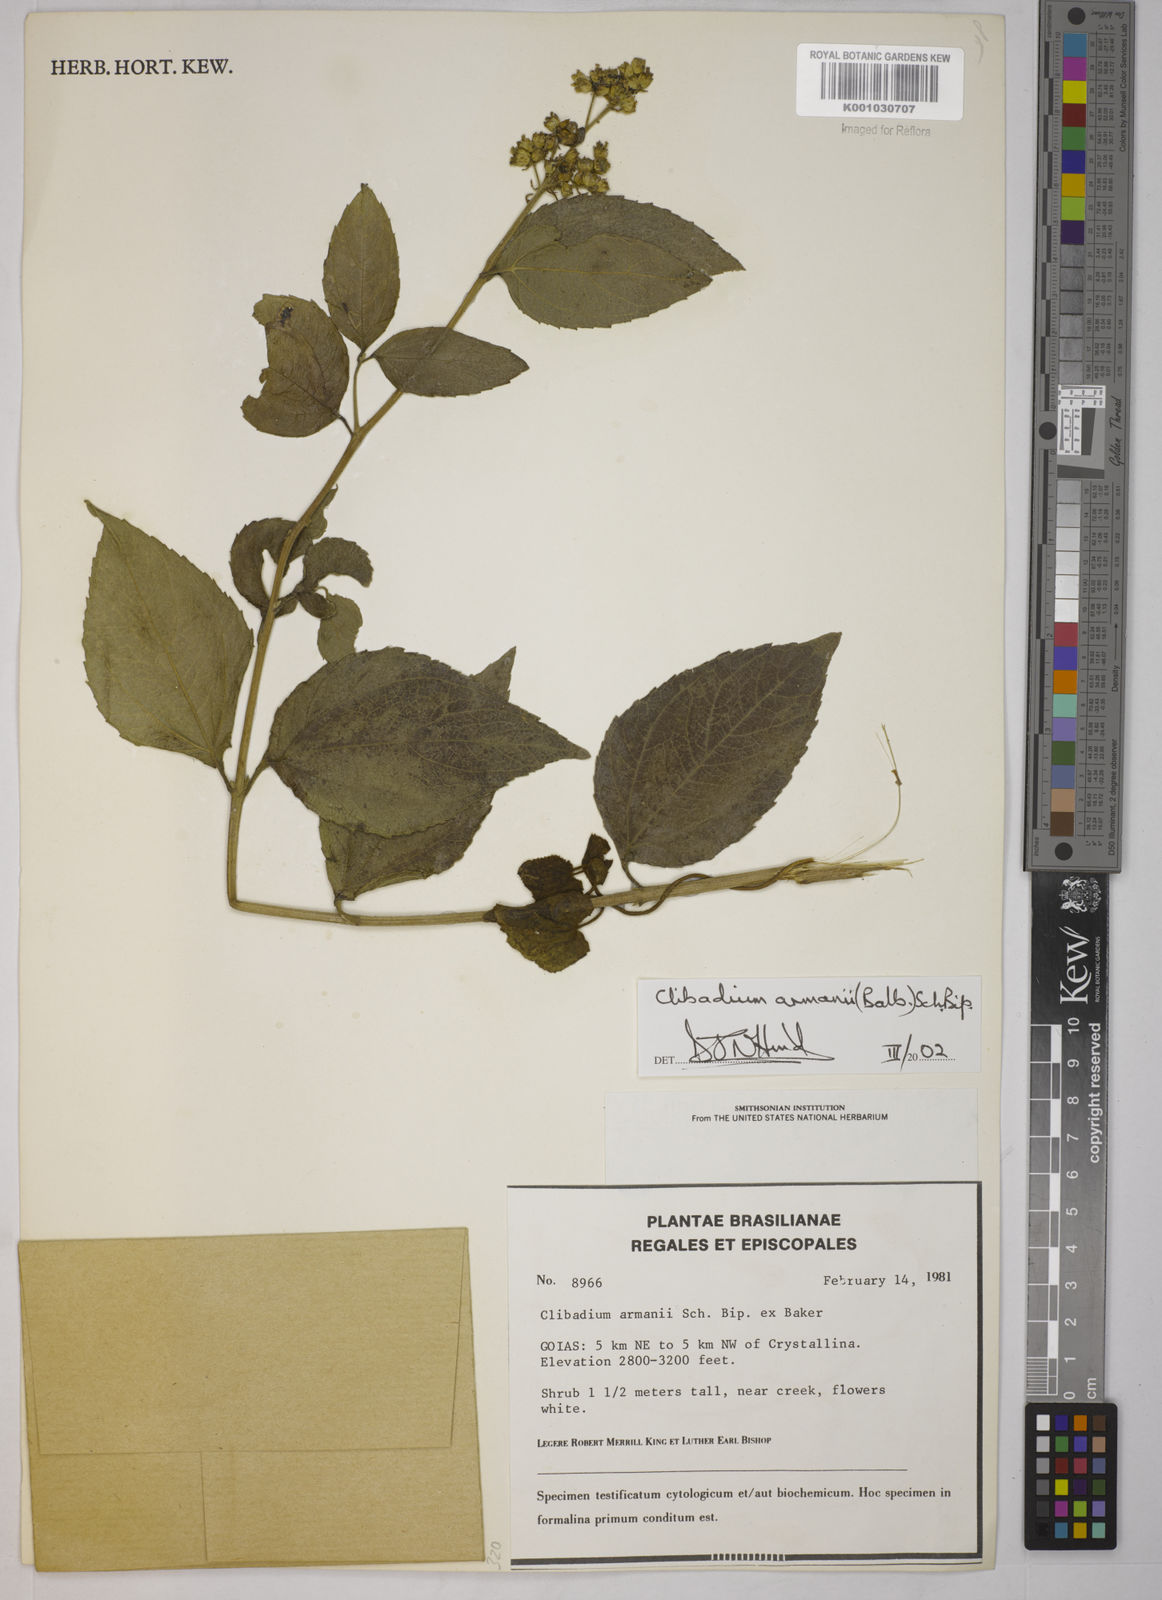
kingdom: Plantae
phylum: Tracheophyta
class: Magnoliopsida
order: Asterales
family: Asteraceae
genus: Clibadium
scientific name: Clibadium armanii
